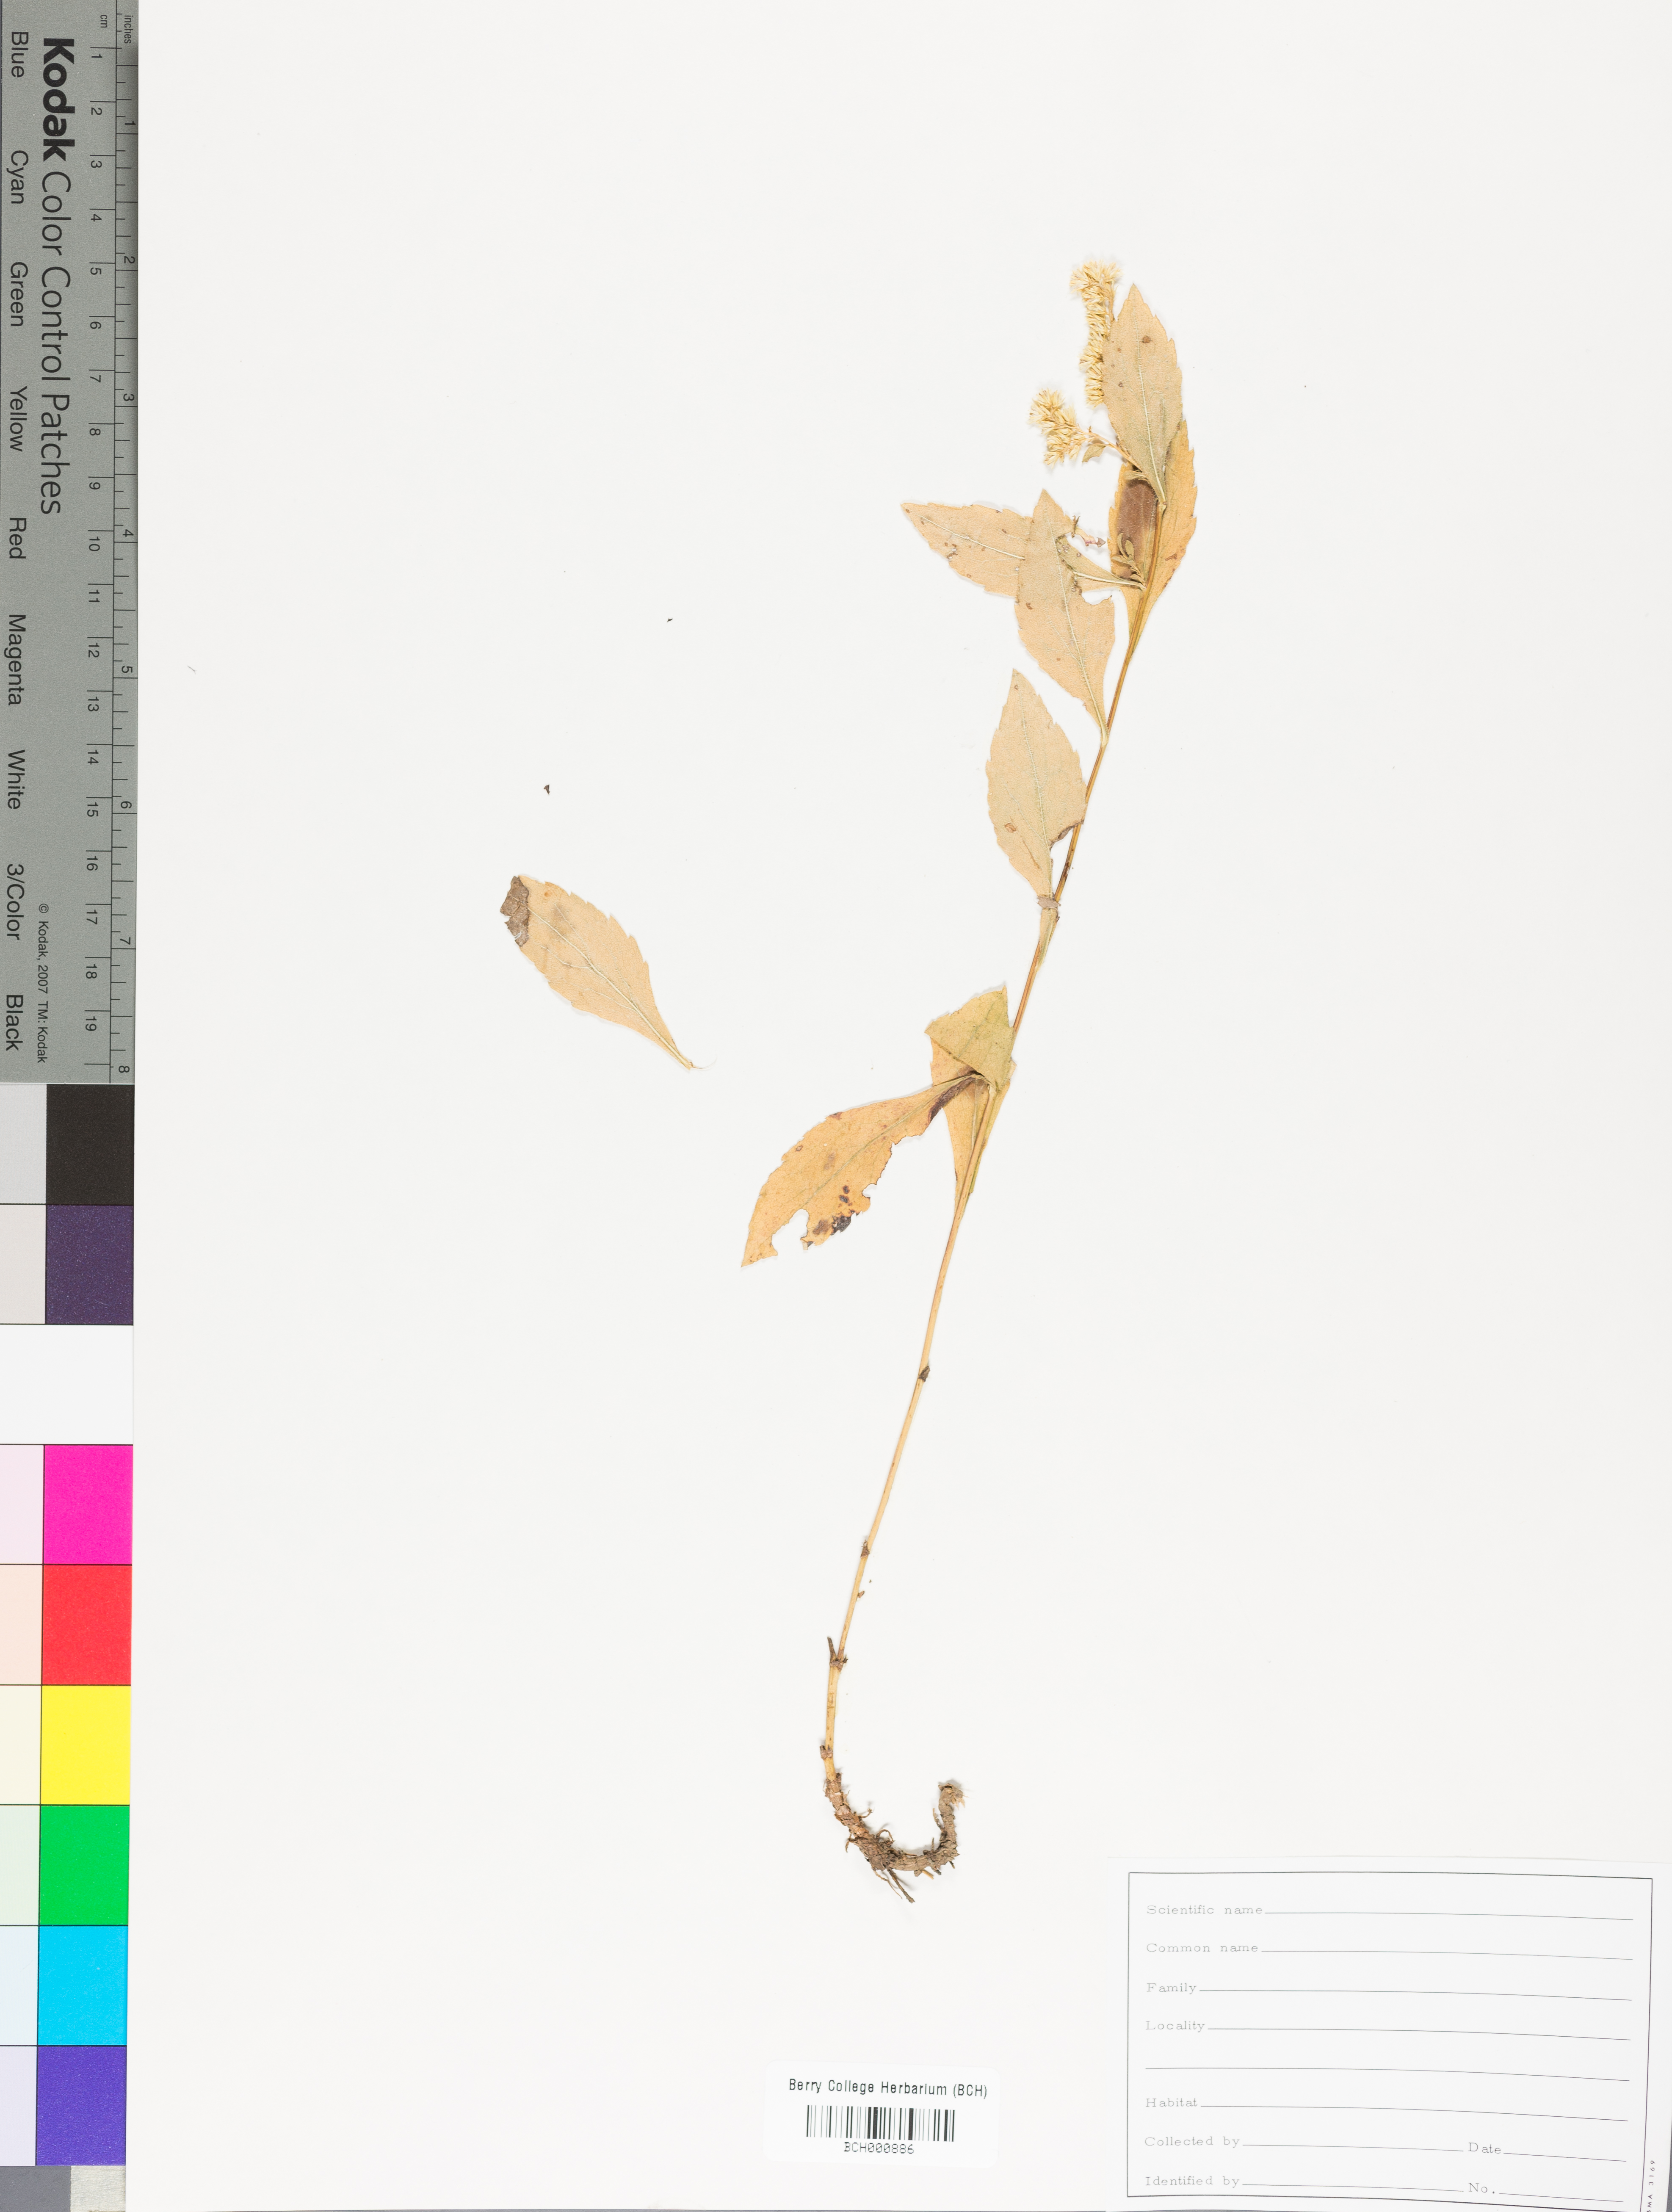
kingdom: Plantae
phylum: Tracheophyta
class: Magnoliopsida
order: Lamiales
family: Acanthaceae
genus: Adhatoda
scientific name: Adhatoda
